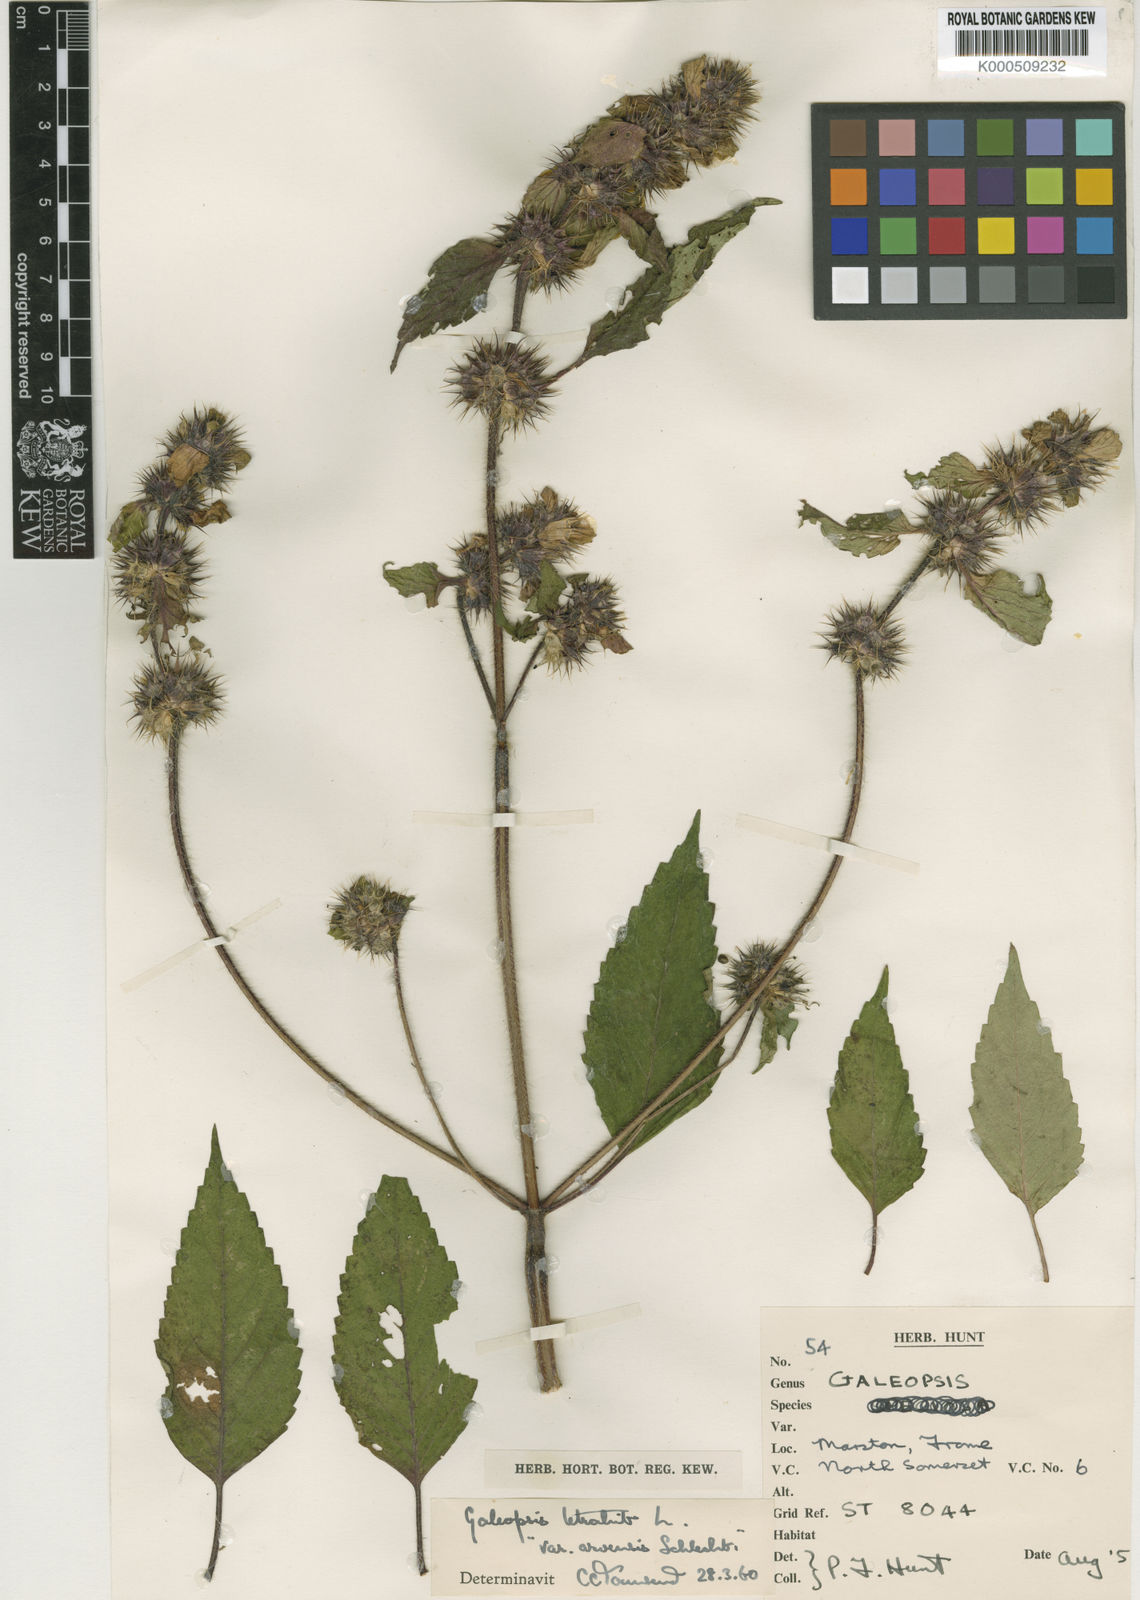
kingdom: Plantae
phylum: Tracheophyta
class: Magnoliopsida
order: Lamiales
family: Lamiaceae
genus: Galeopsis
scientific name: Galeopsis tetrahit
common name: Common hemp-nettle
